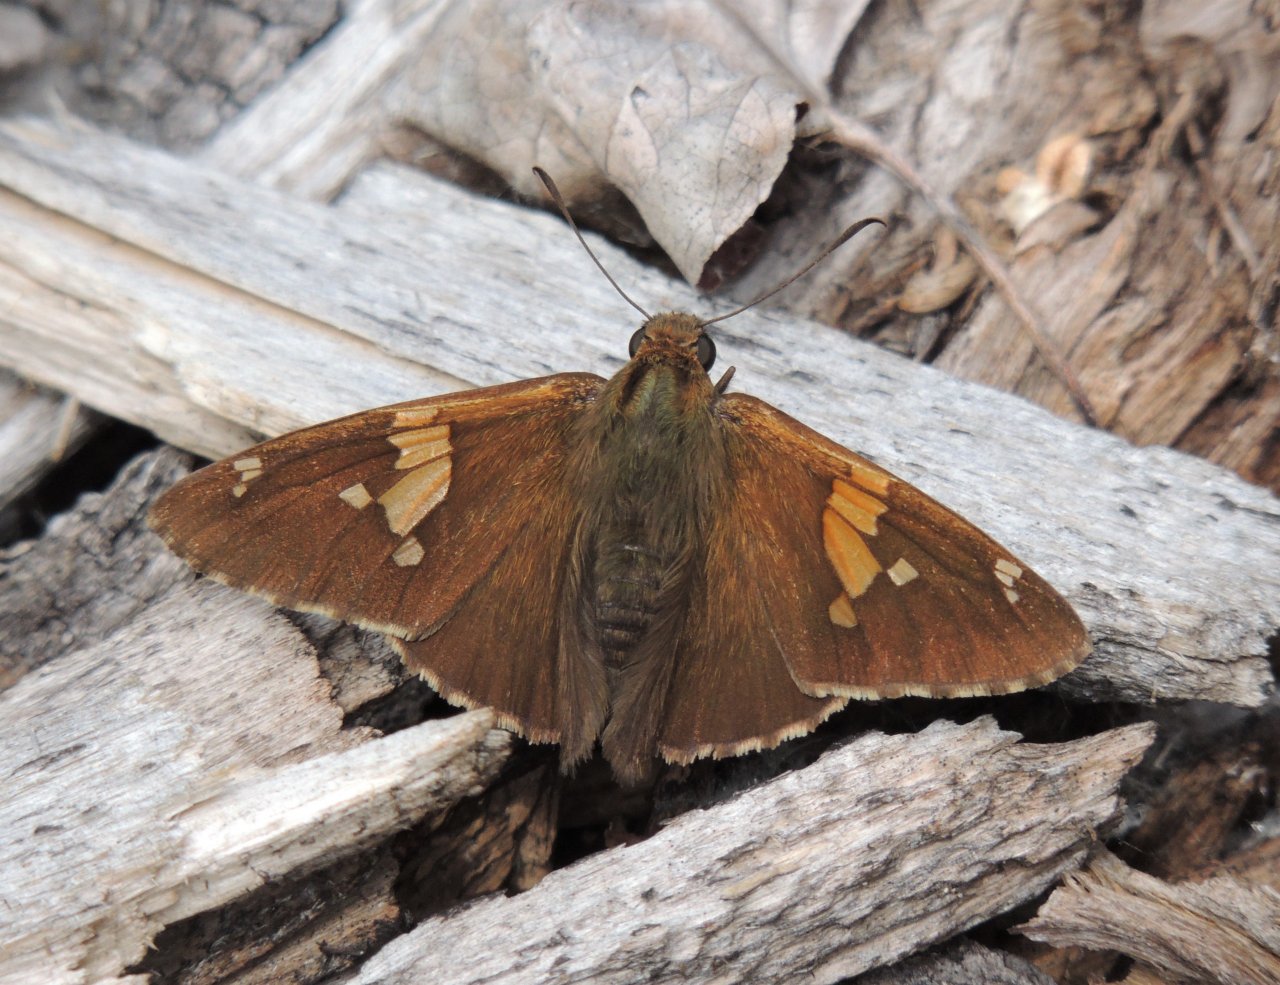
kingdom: Animalia
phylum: Arthropoda
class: Insecta
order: Lepidoptera
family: Hesperiidae
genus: Epargyreus
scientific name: Epargyreus clarus
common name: Silver-spotted Skipper
